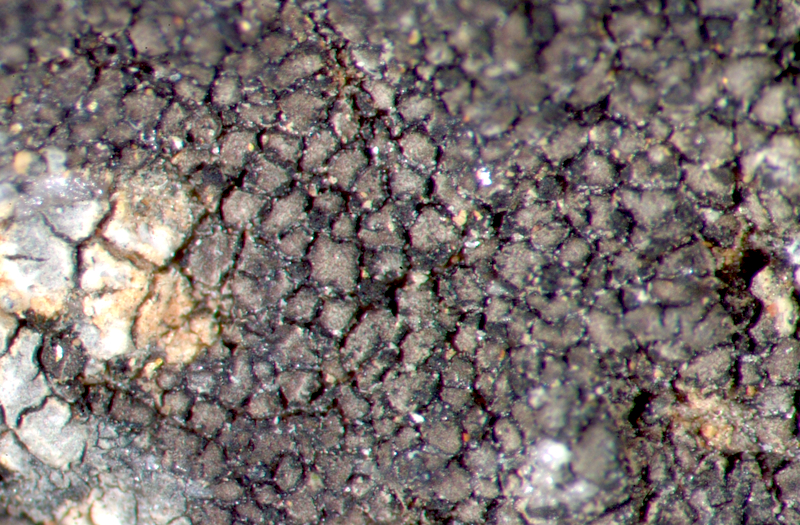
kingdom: Fungi
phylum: Ascomycota
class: Lecanoromycetes
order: Caliciales
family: Physciaceae
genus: Rinodina
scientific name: Rinodina
